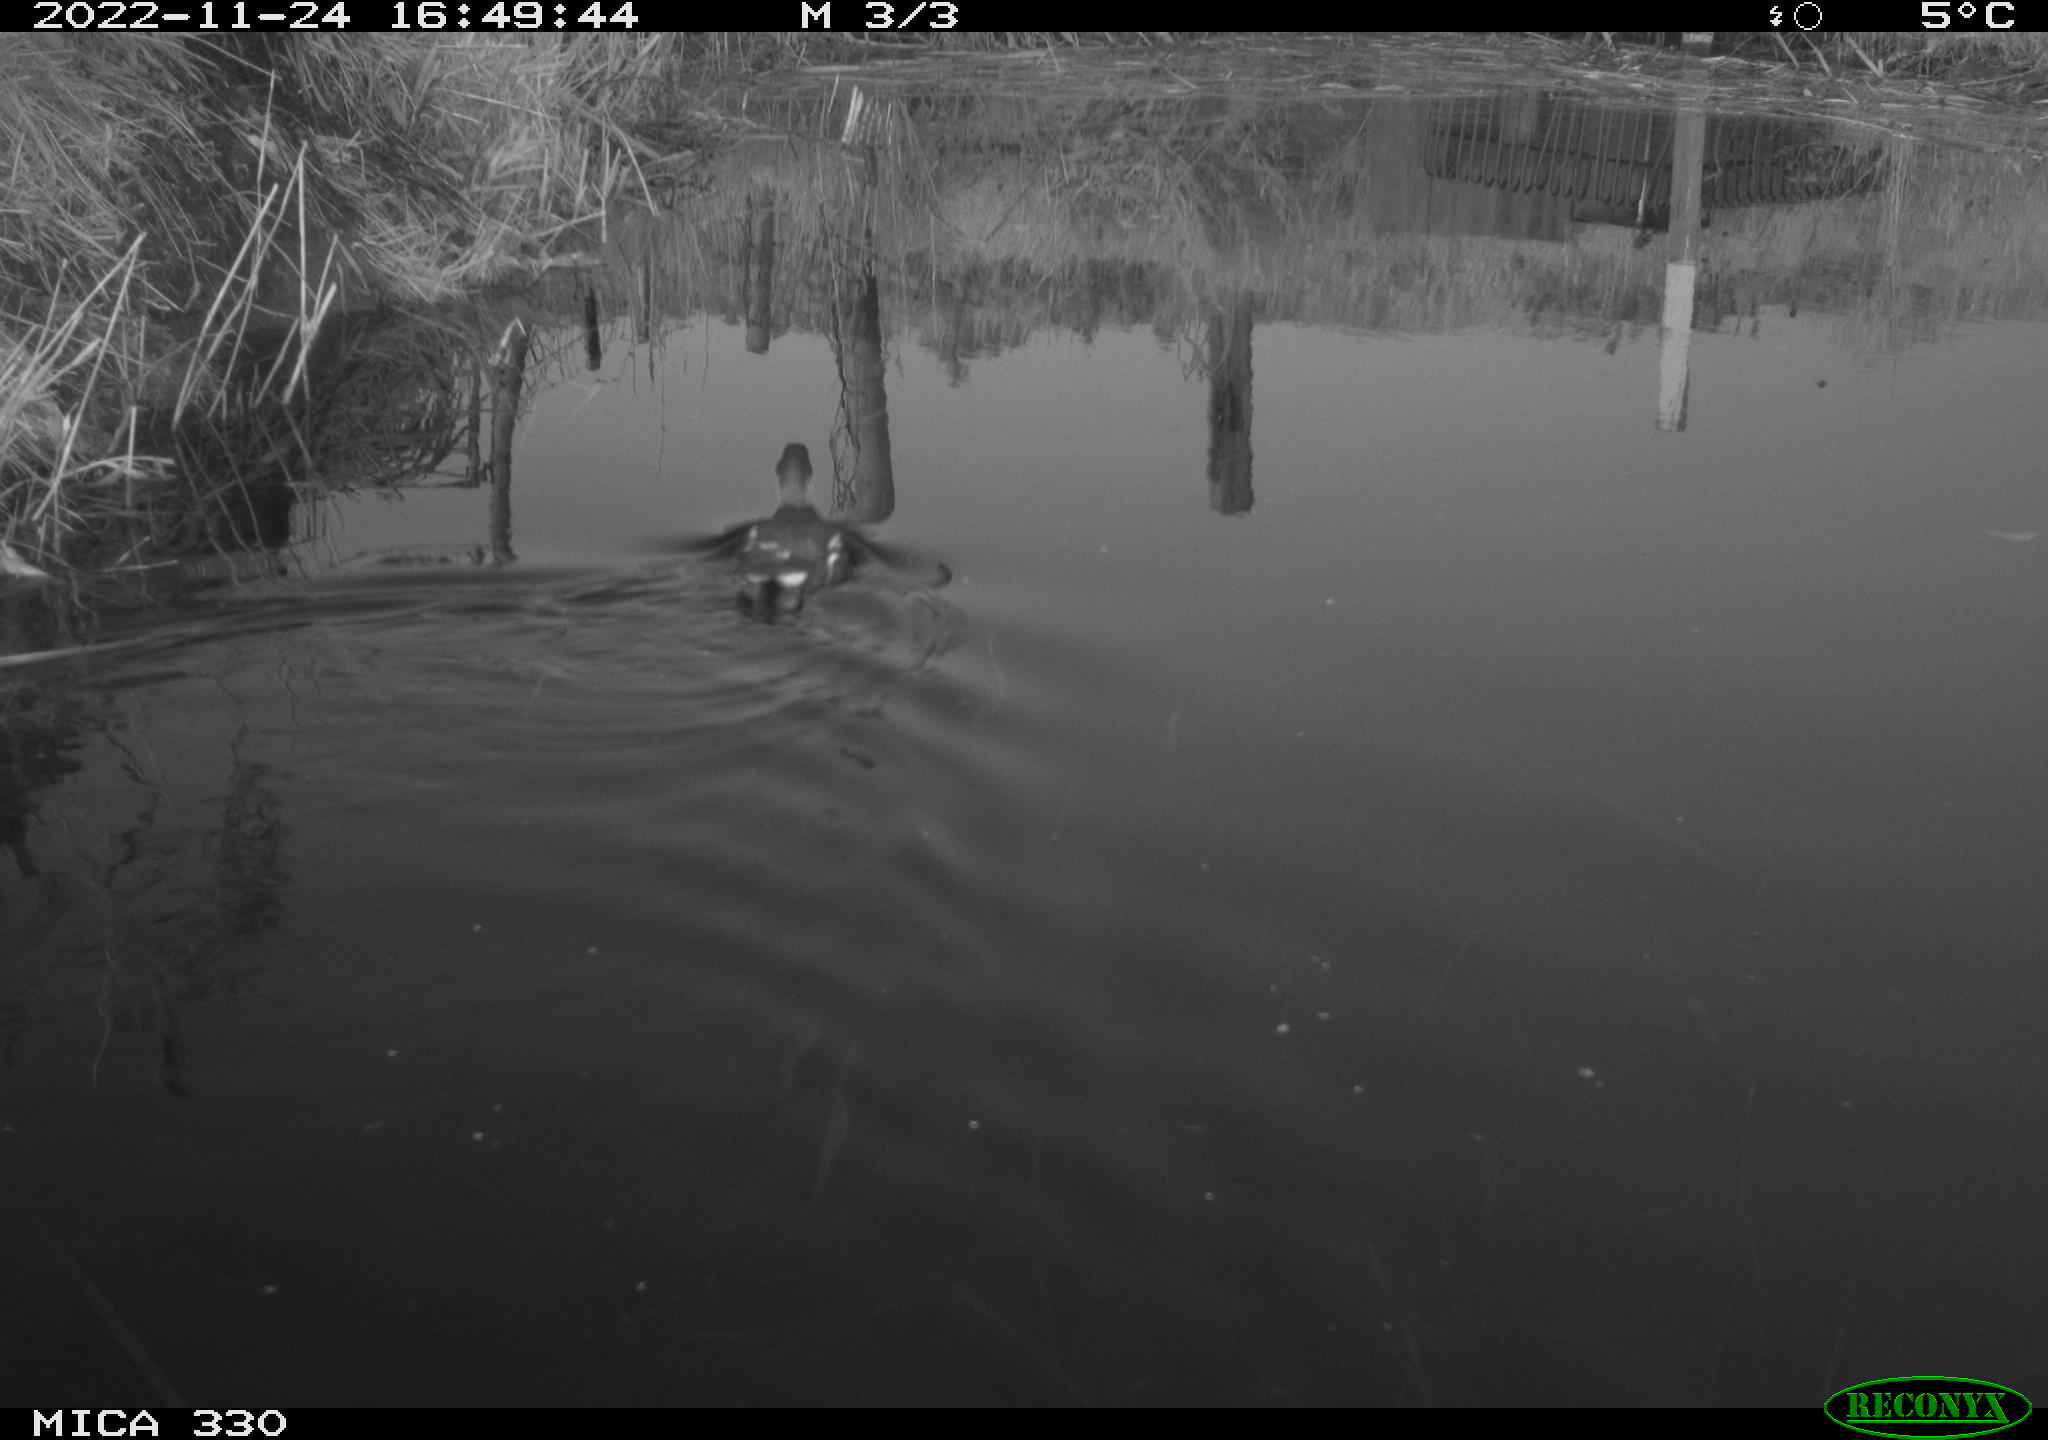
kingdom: Animalia
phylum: Chordata
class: Aves
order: Gruiformes
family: Rallidae
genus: Gallinula
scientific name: Gallinula chloropus
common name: Common moorhen
